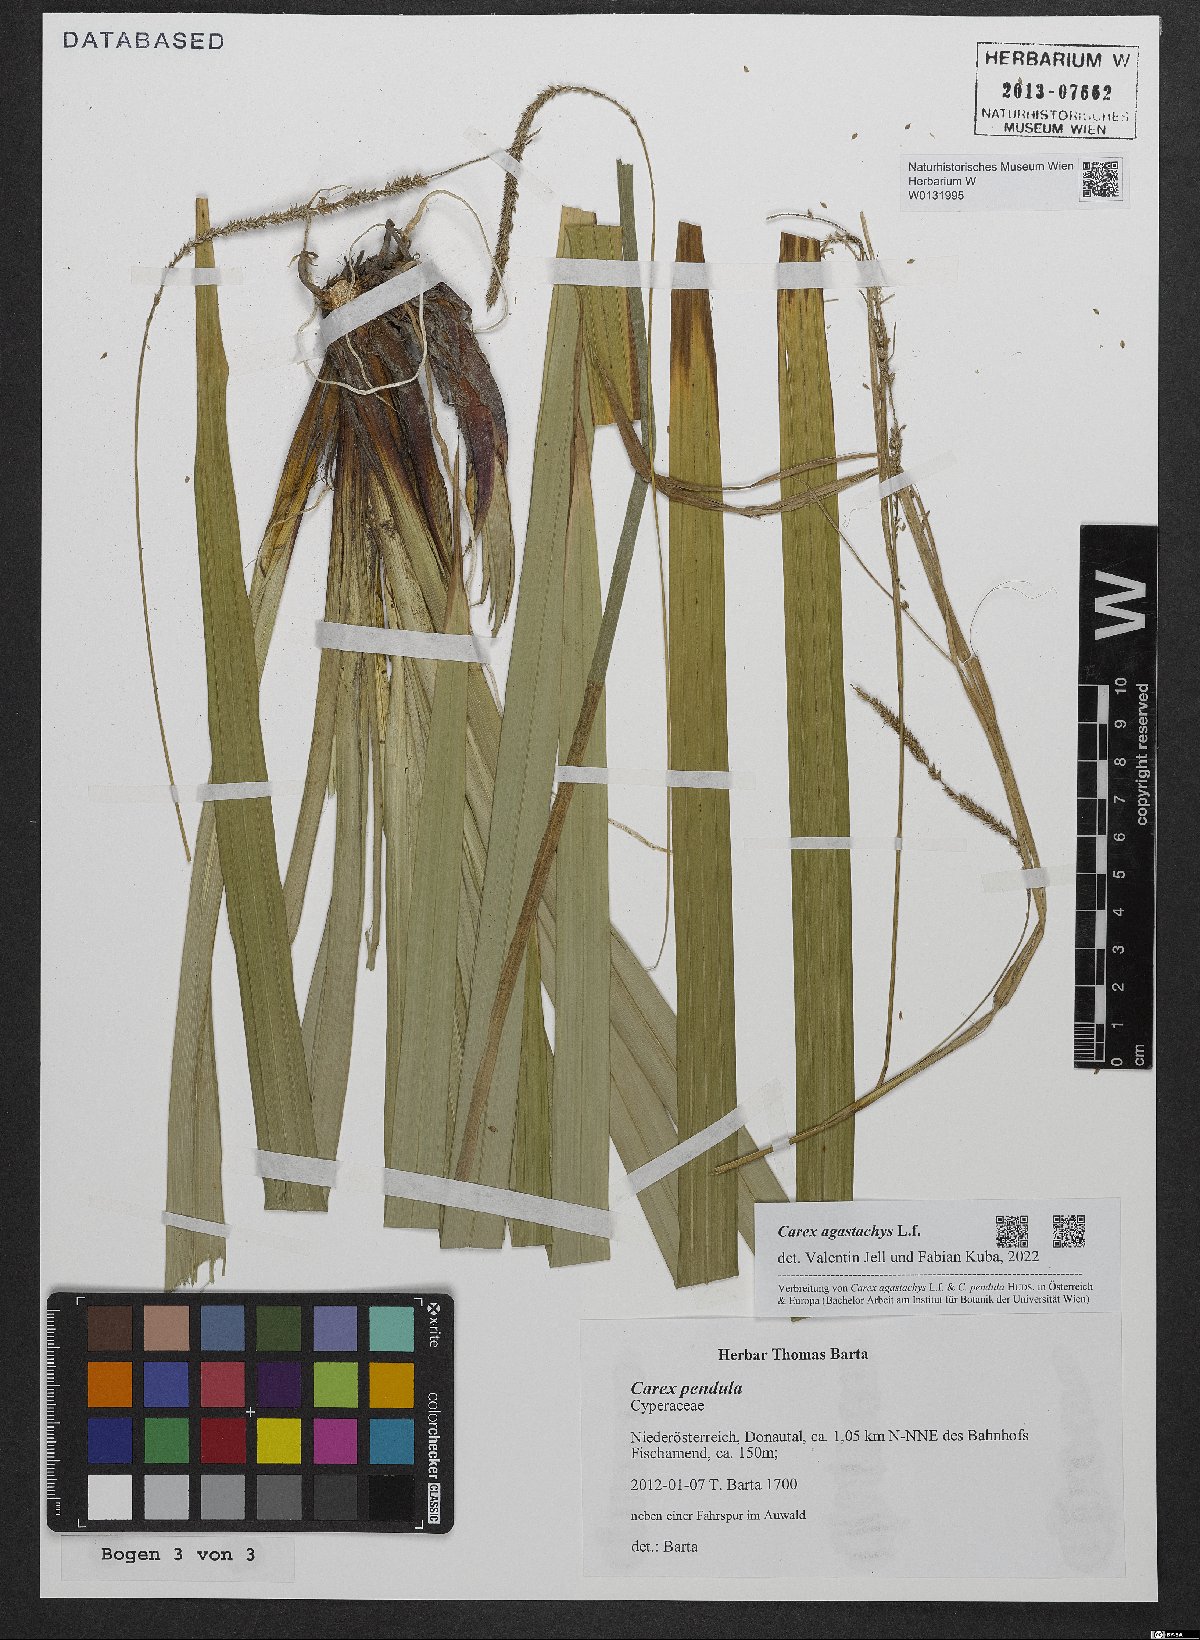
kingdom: Plantae
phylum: Tracheophyta
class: Liliopsida
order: Poales
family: Cyperaceae
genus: Carex
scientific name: Carex agastachys
